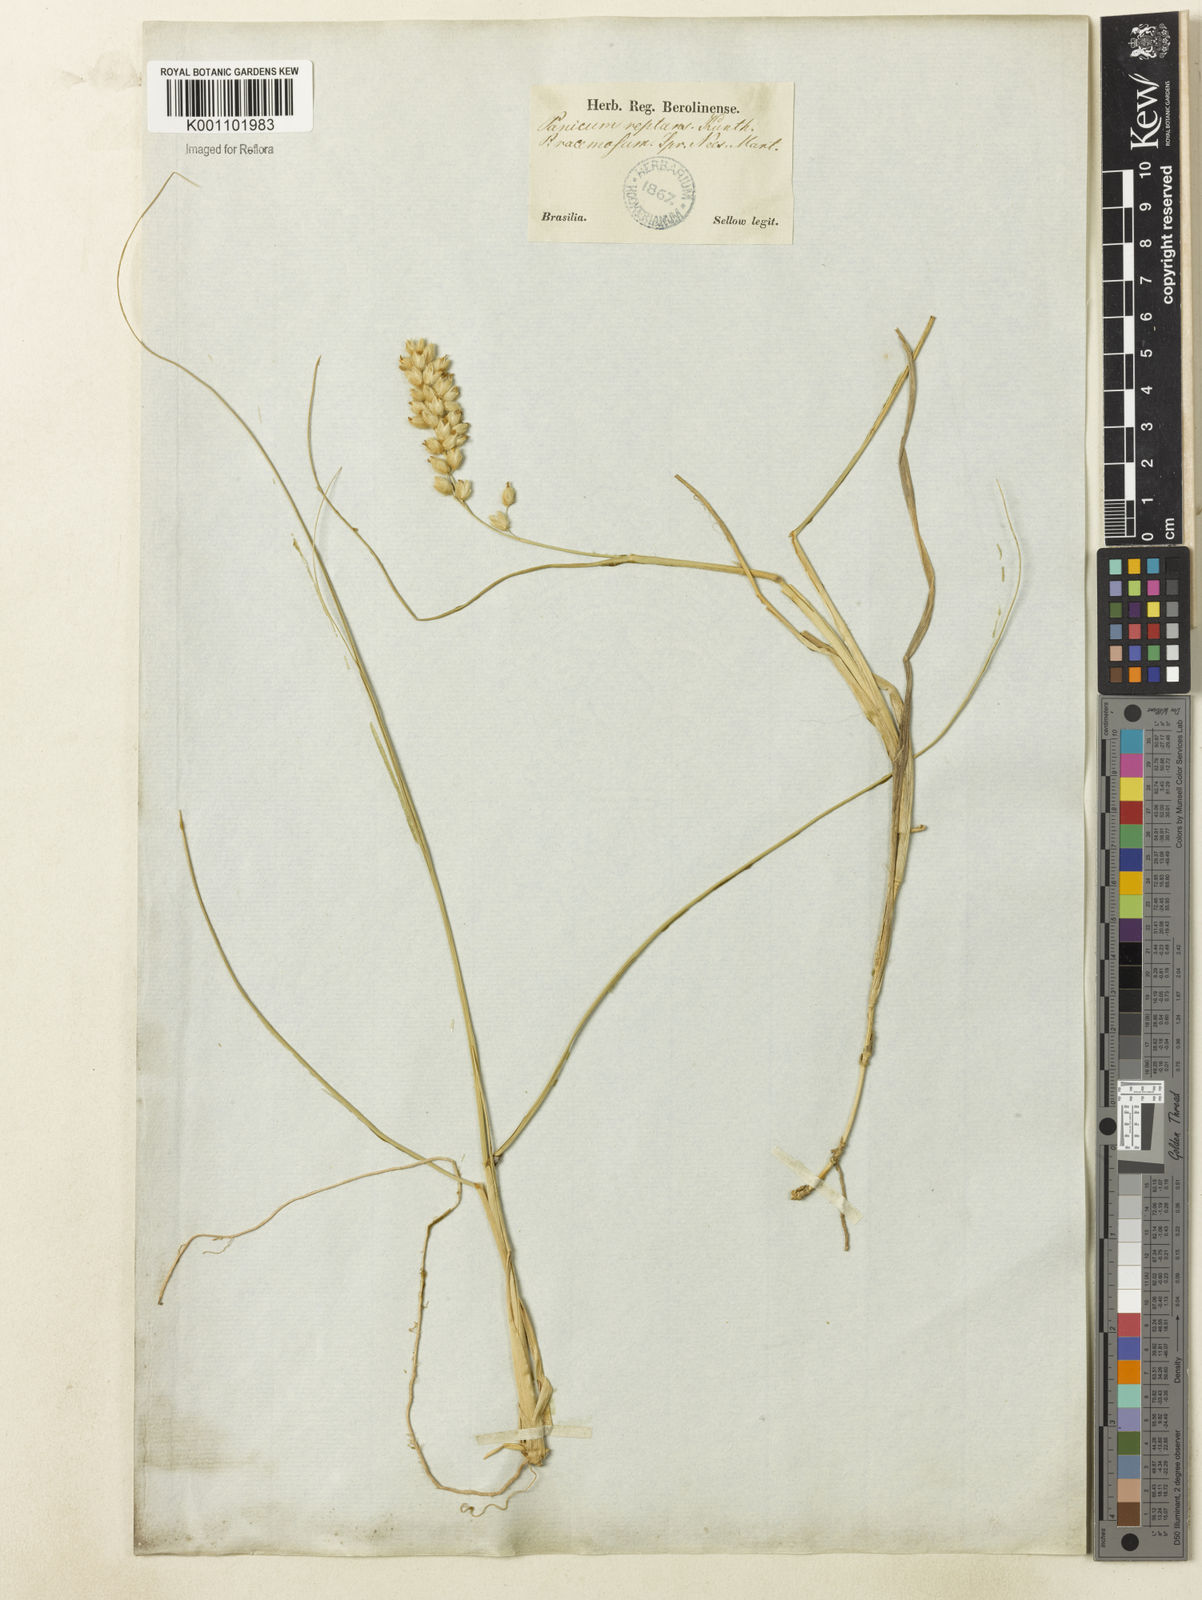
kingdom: Plantae
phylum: Tracheophyta
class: Liliopsida
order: Poales
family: Poaceae
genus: Panicum
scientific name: Panicum racemosum
